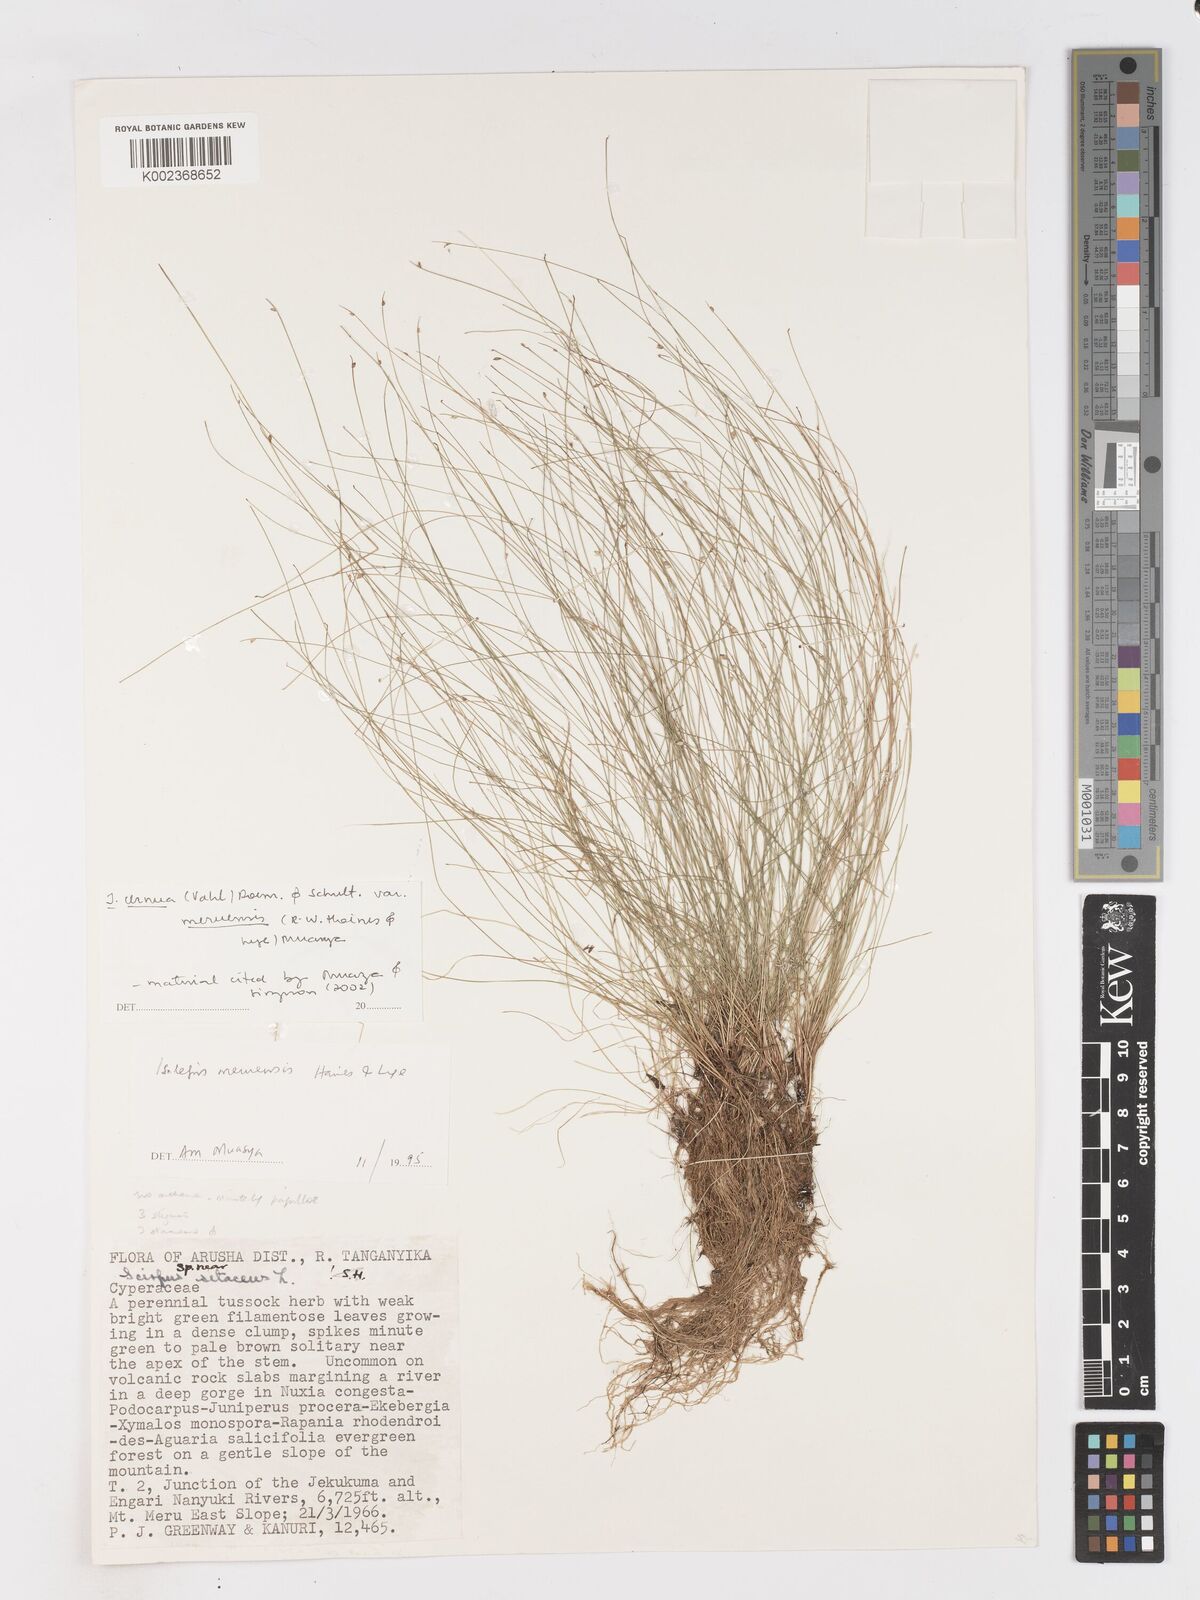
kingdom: Plantae
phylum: Tracheophyta
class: Liliopsida
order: Poales
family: Cyperaceae
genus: Isolepis
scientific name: Isolepis cernua
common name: Slender club-rush
